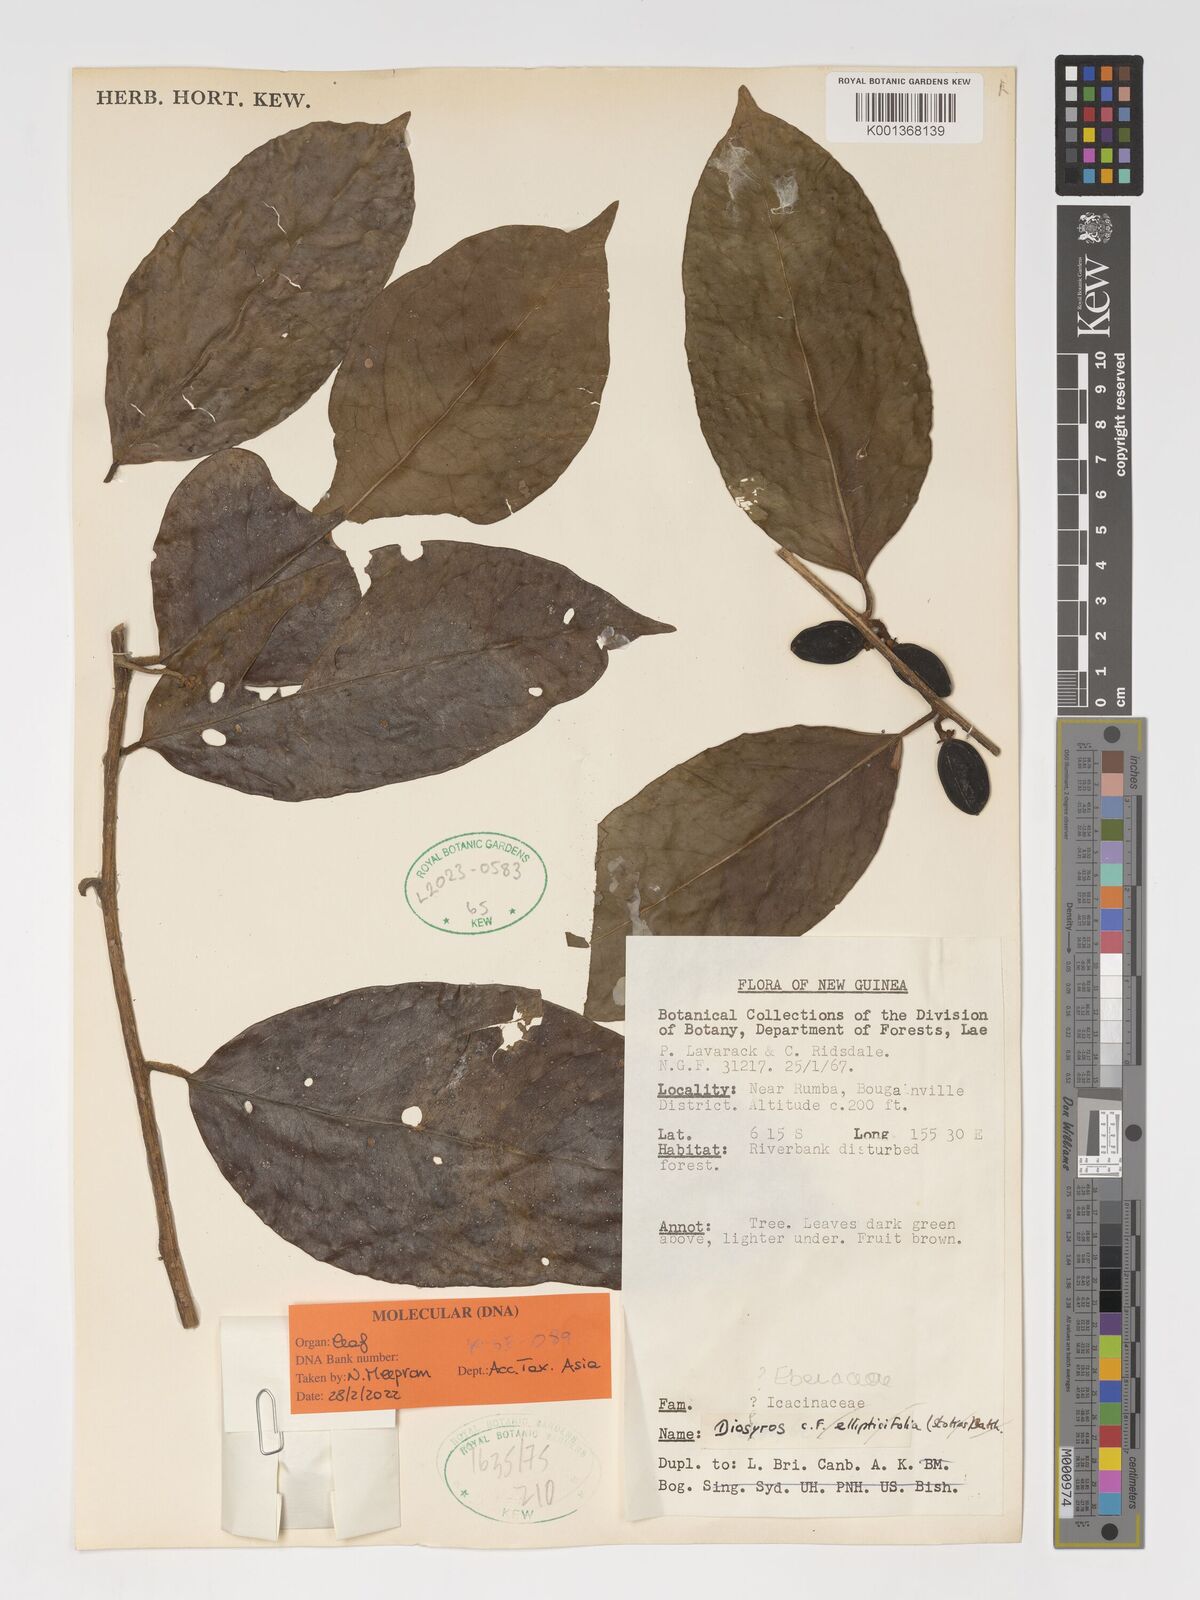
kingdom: Plantae
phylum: Tracheophyta
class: Magnoliopsida
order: Ericales
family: Ebenaceae
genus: Diospyros
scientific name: Diospyros
